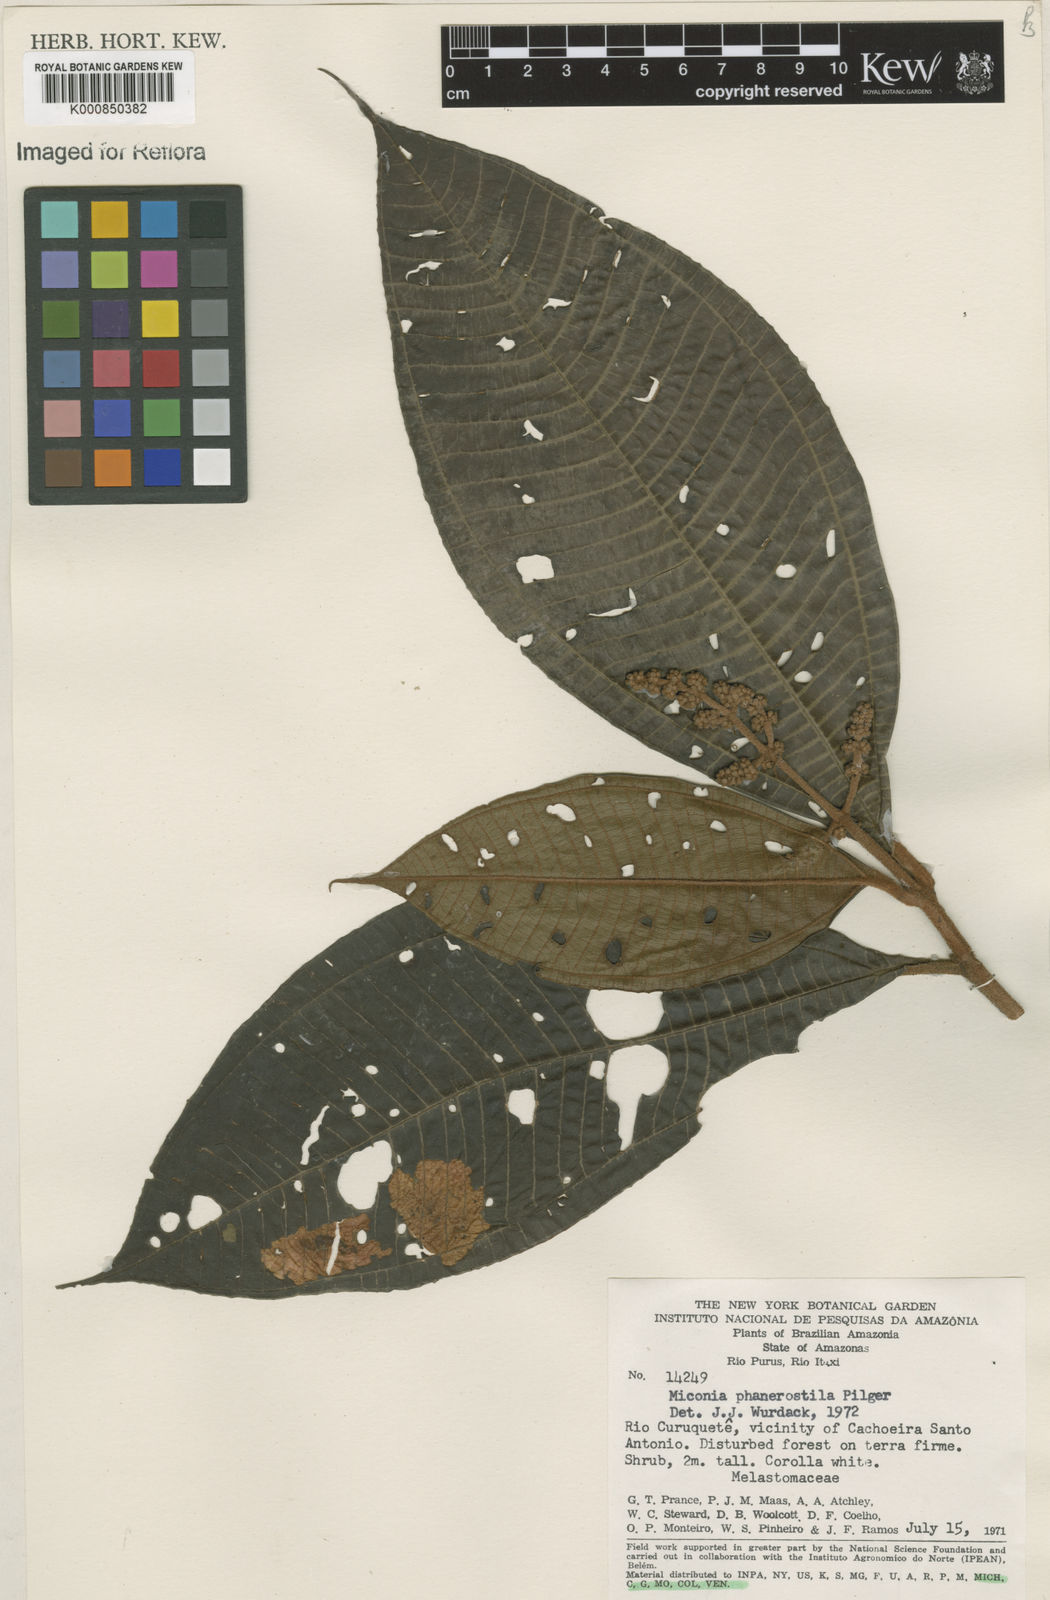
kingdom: Plantae
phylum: Tracheophyta
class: Magnoliopsida
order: Myrtales
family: Melastomataceae
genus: Miconia
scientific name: Miconia phanerostila
